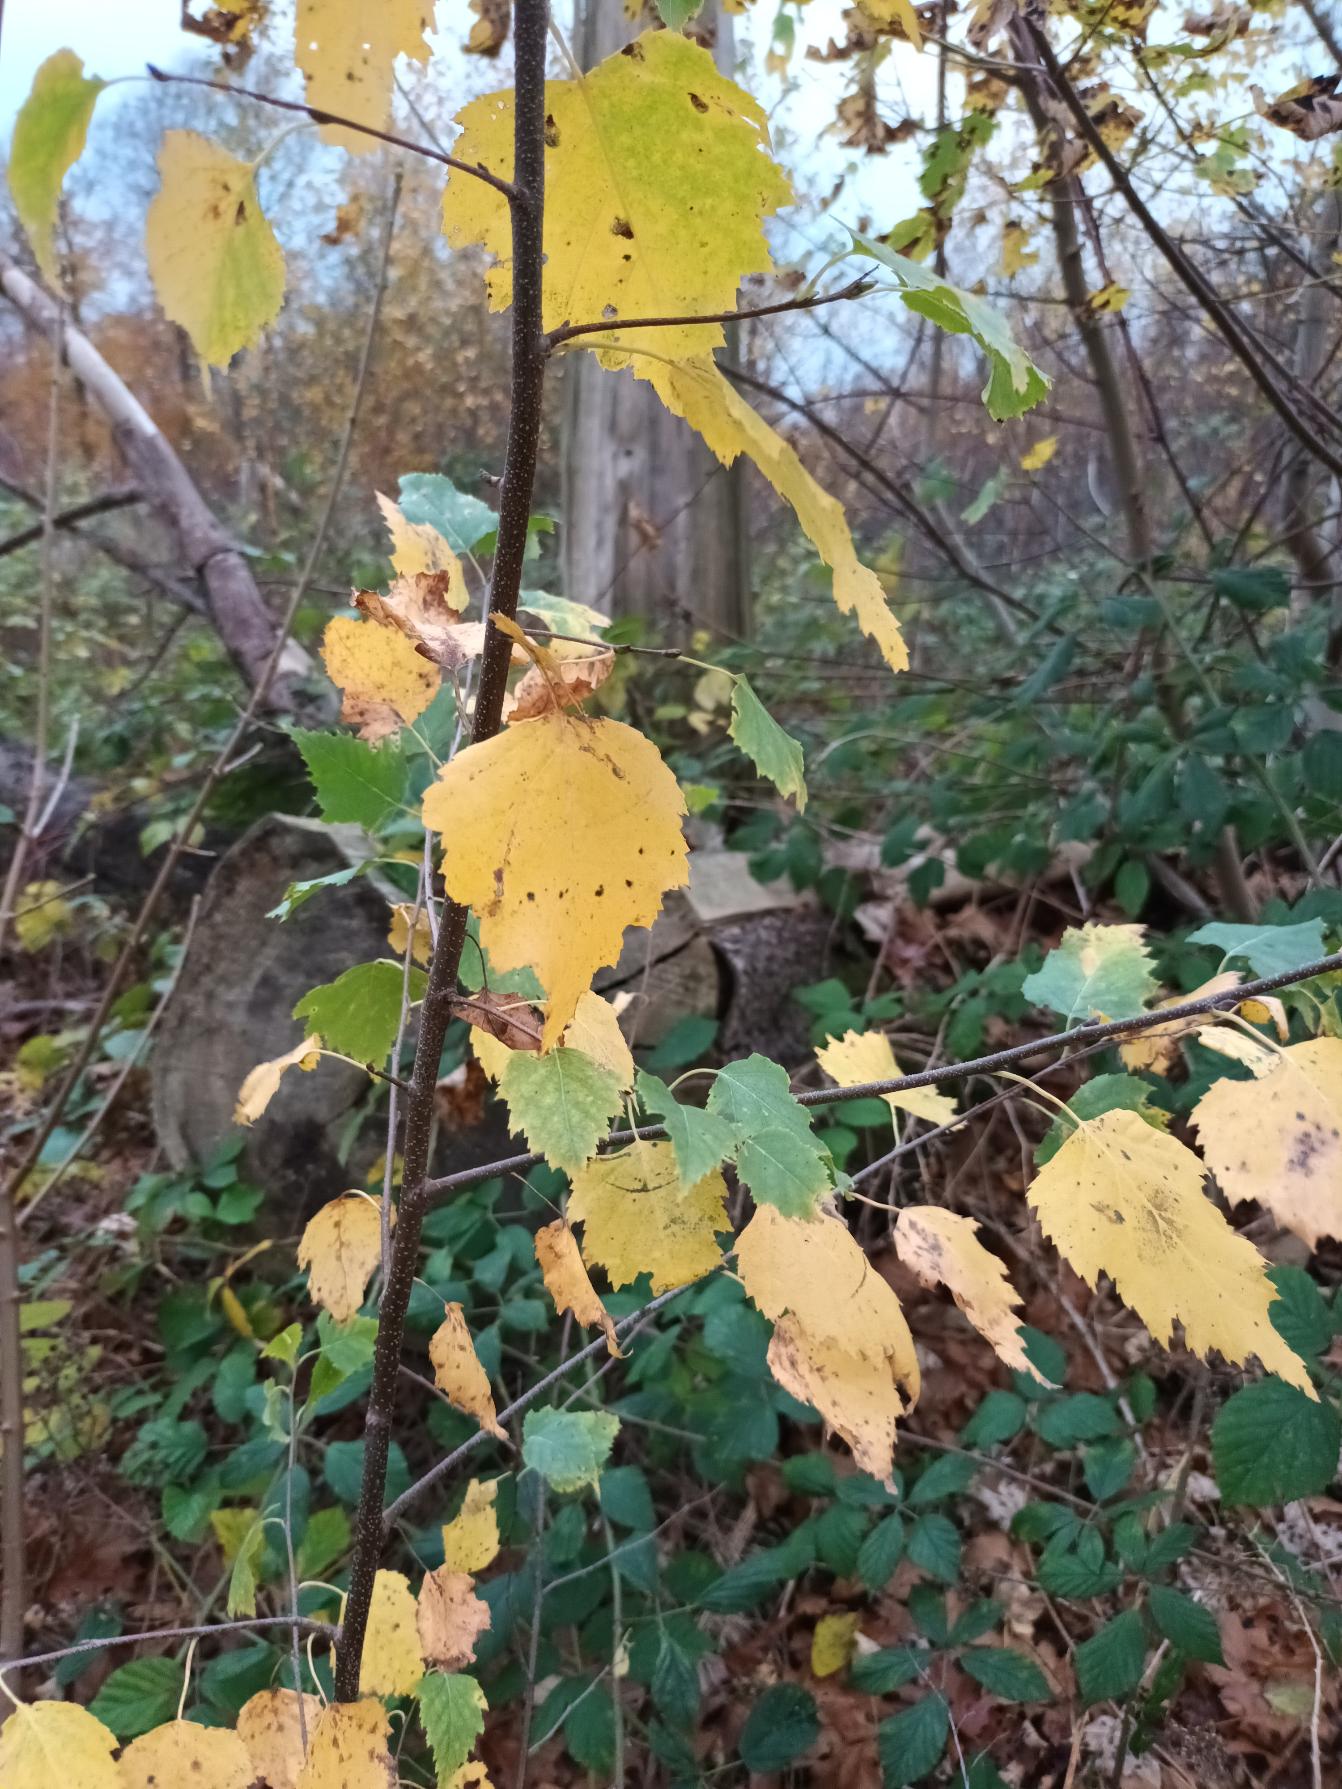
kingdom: Plantae
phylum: Tracheophyta
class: Magnoliopsida
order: Fagales
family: Betulaceae
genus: Betula
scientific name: Betula pendula
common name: Vorte-birk
